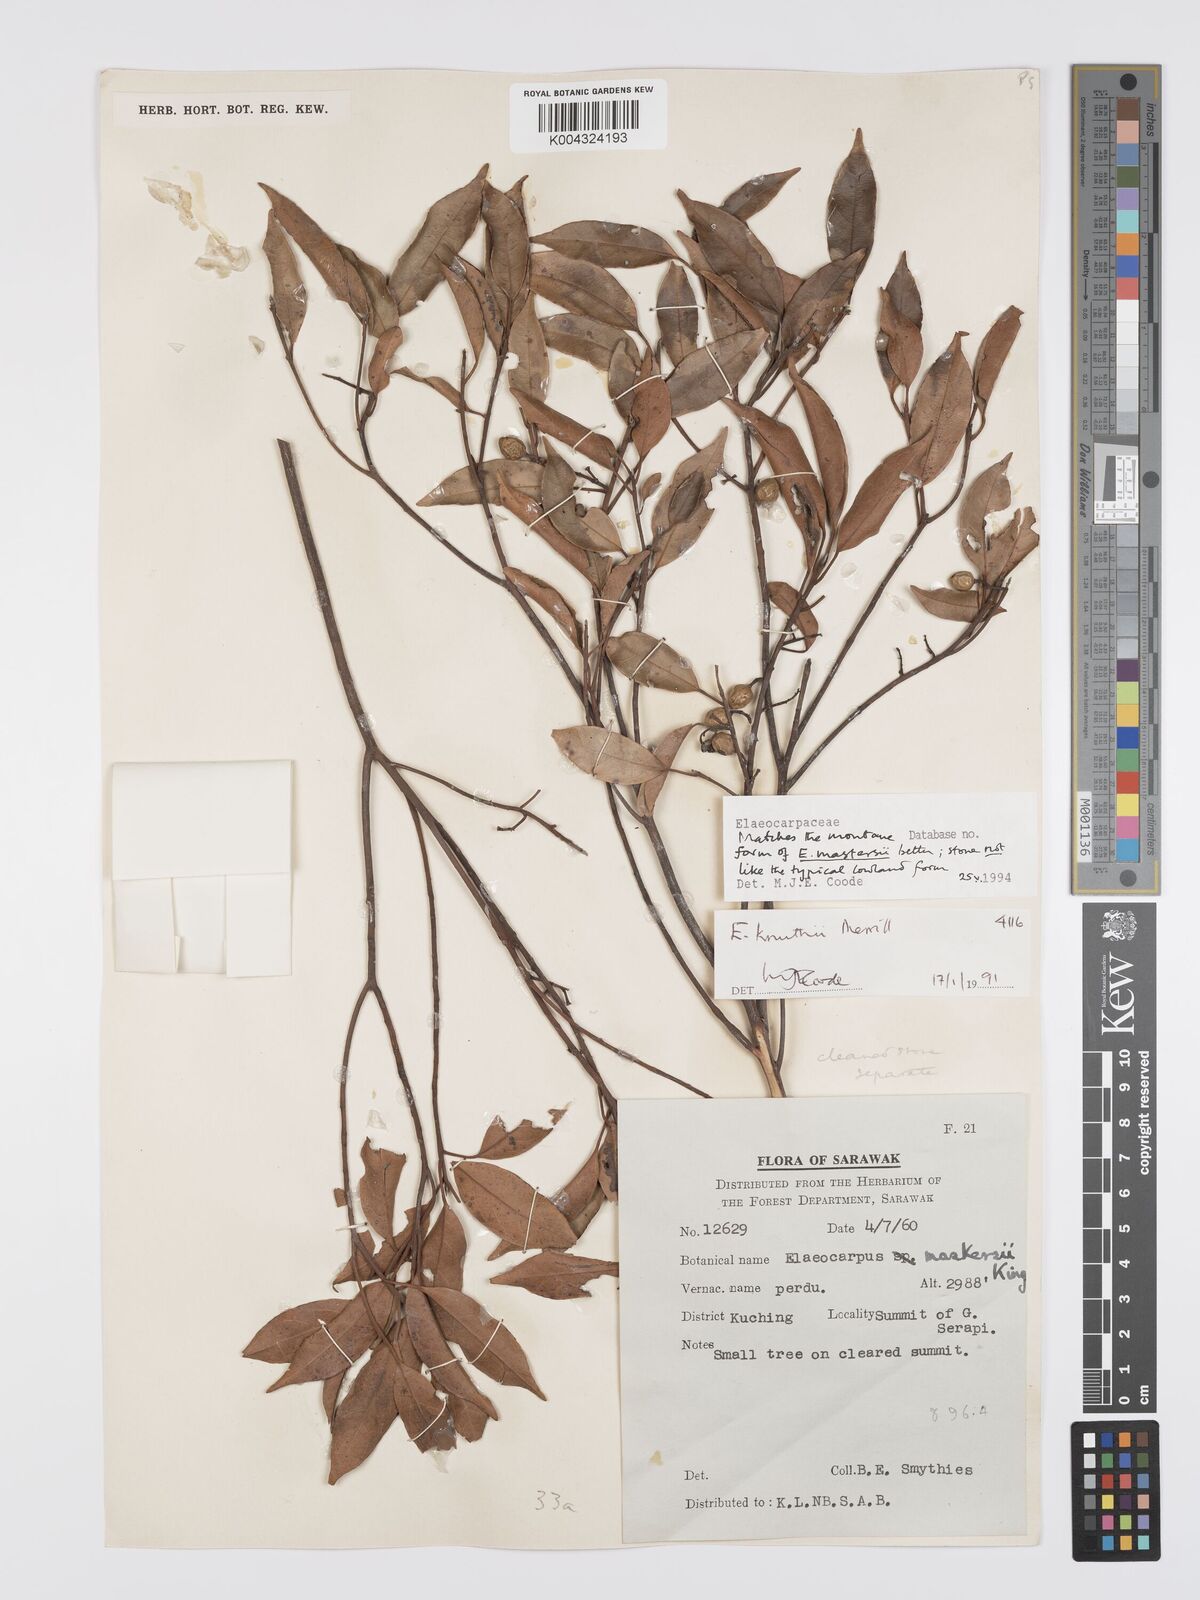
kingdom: Plantae
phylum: Tracheophyta
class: Magnoliopsida
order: Oxalidales
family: Elaeocarpaceae
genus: Elaeocarpus
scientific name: Elaeocarpus mastersii
